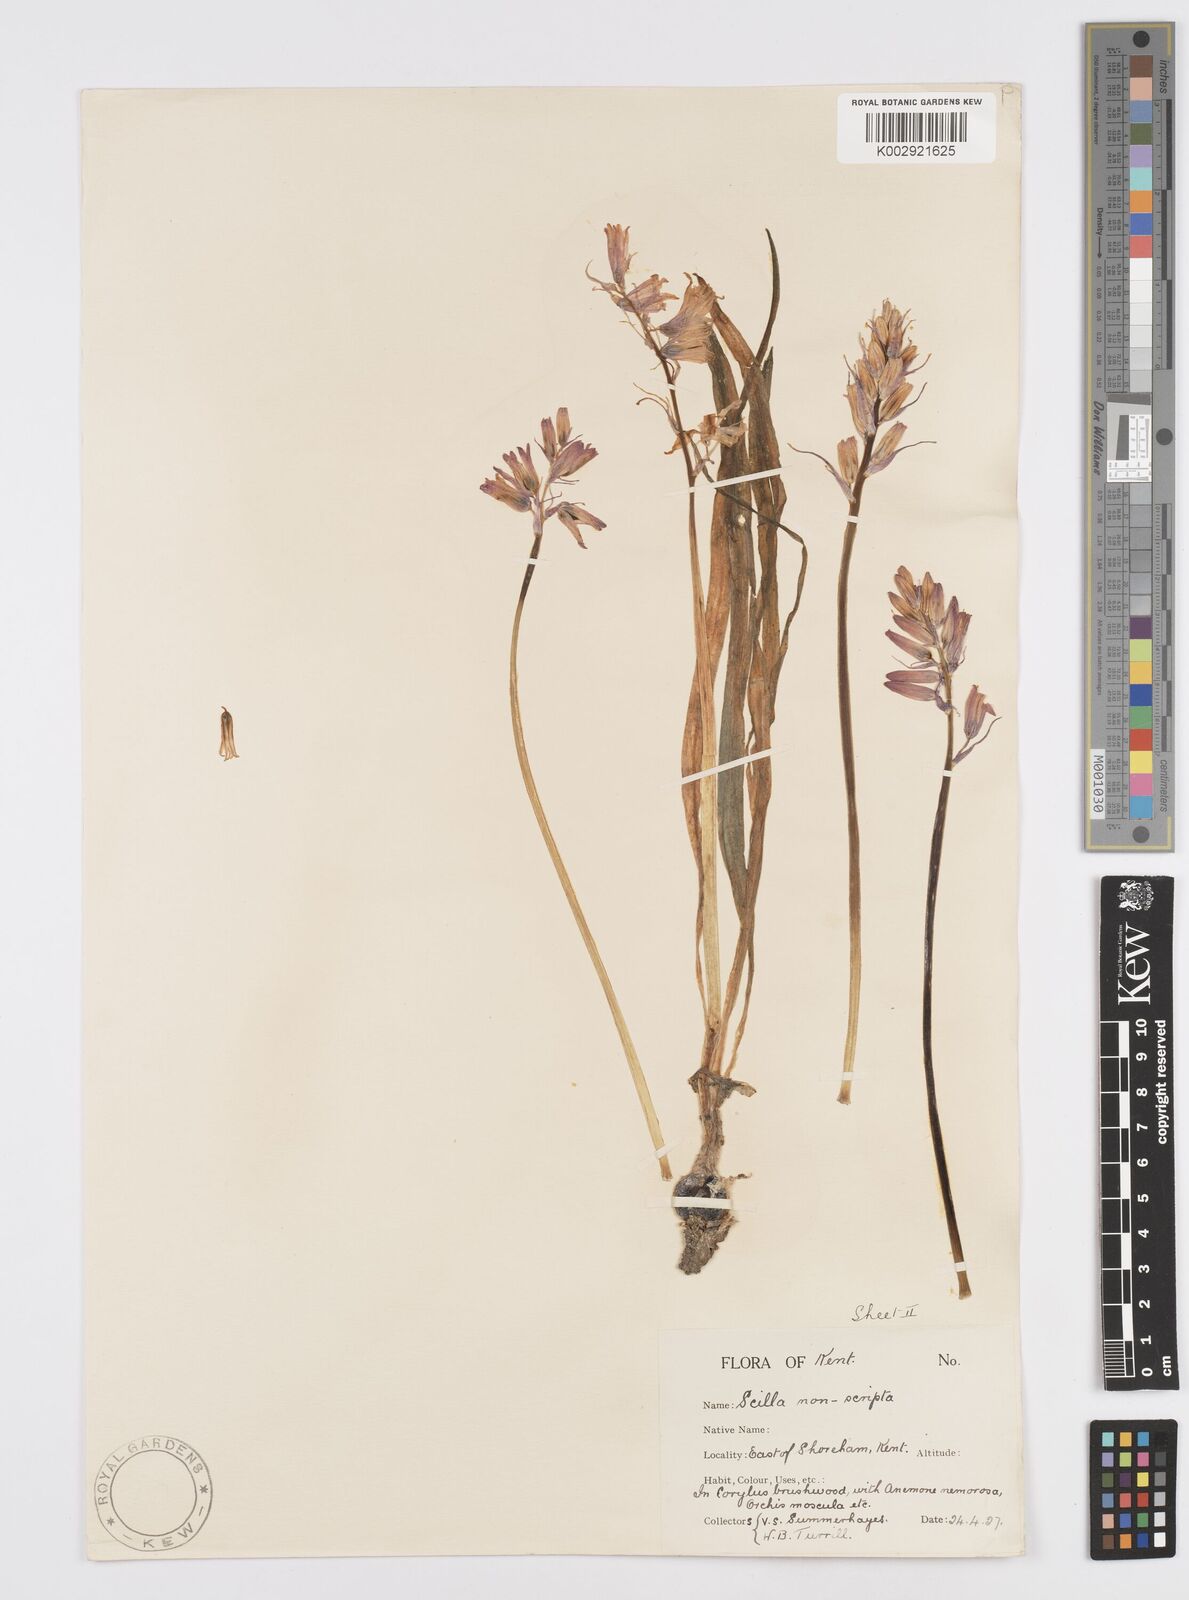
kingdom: Plantae
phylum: Tracheophyta
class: Liliopsida
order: Asparagales
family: Asparagaceae
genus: Hyacinthoides
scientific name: Hyacinthoides non-scripta
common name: Bluebell
